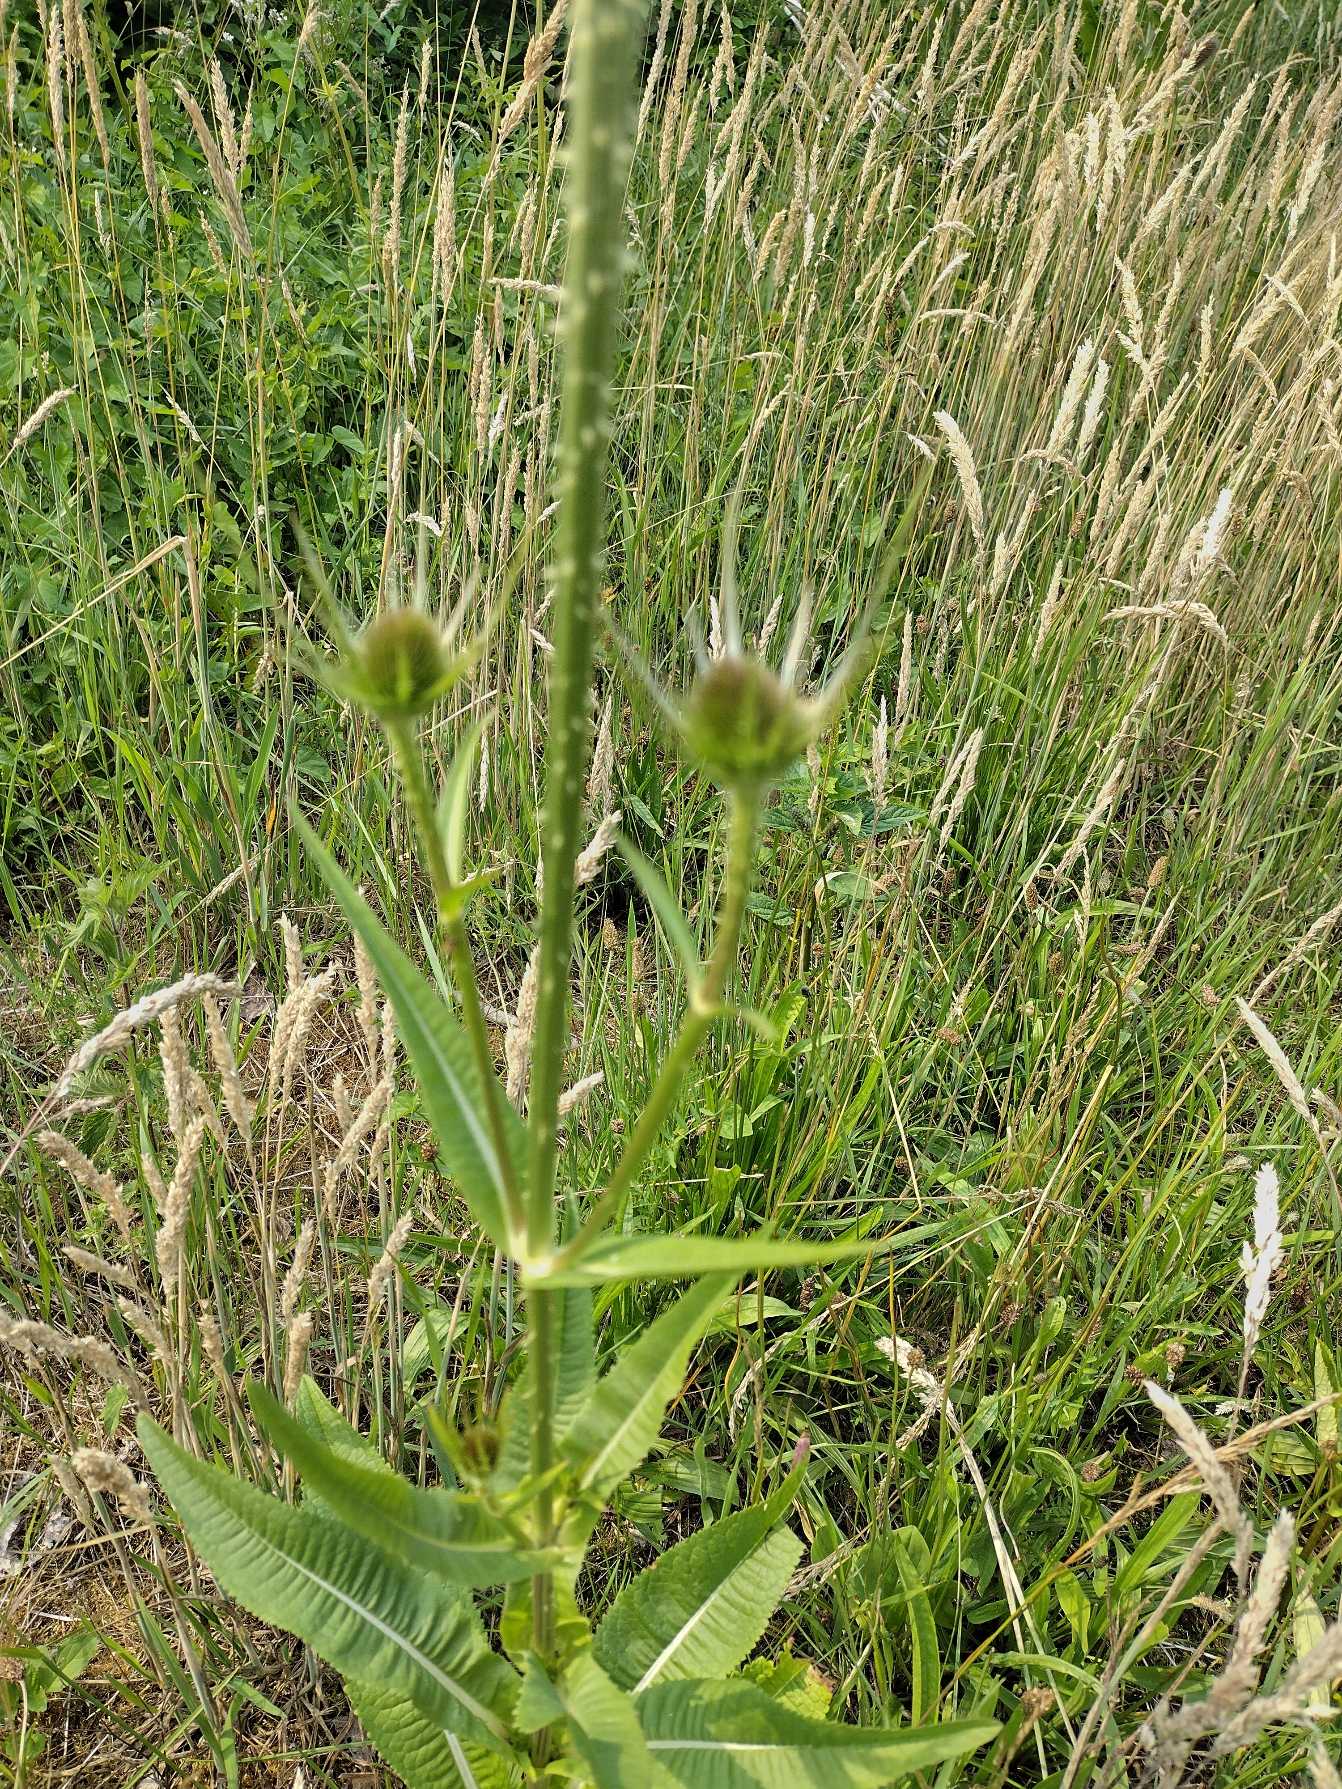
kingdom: Plantae
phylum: Tracheophyta
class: Magnoliopsida
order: Dipsacales
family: Caprifoliaceae
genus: Dipsacus
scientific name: Dipsacus fullonum
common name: Gærde-kartebolle
